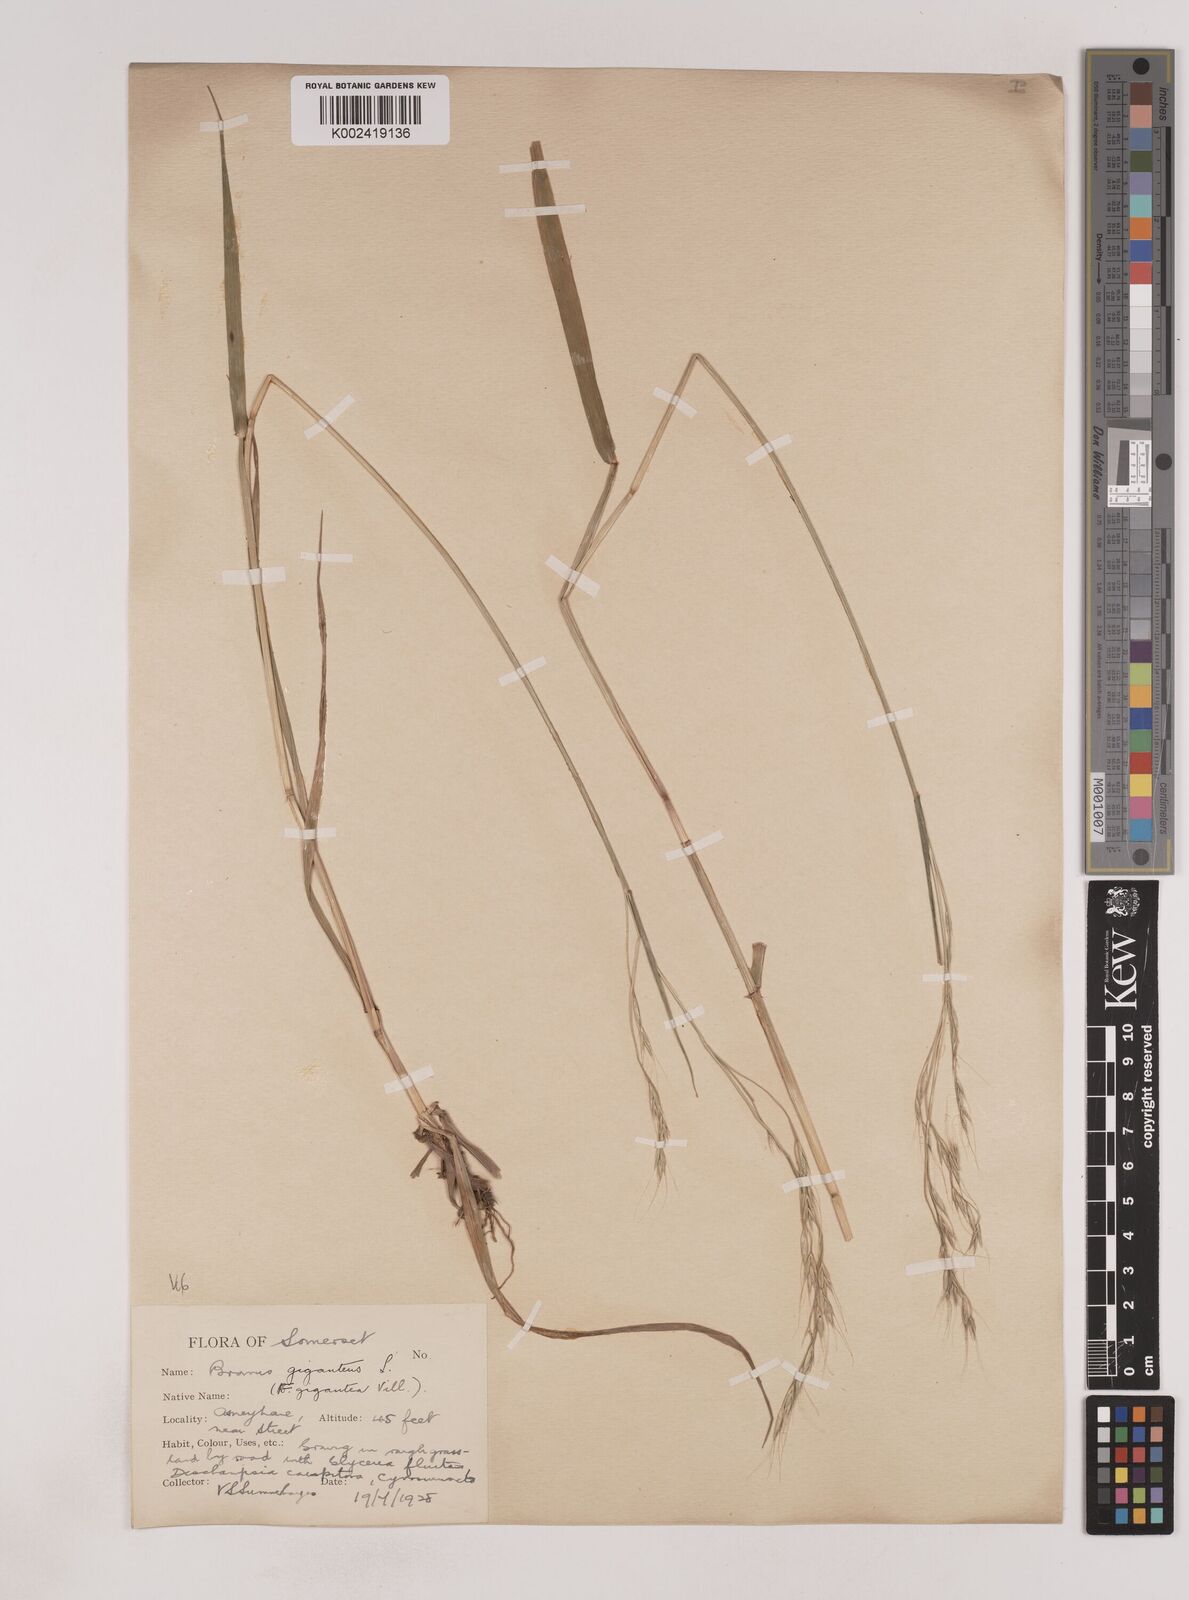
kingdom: Plantae
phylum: Tracheophyta
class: Liliopsida
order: Poales
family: Poaceae
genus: Lolium
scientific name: Lolium giganteum
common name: Giant fescue
